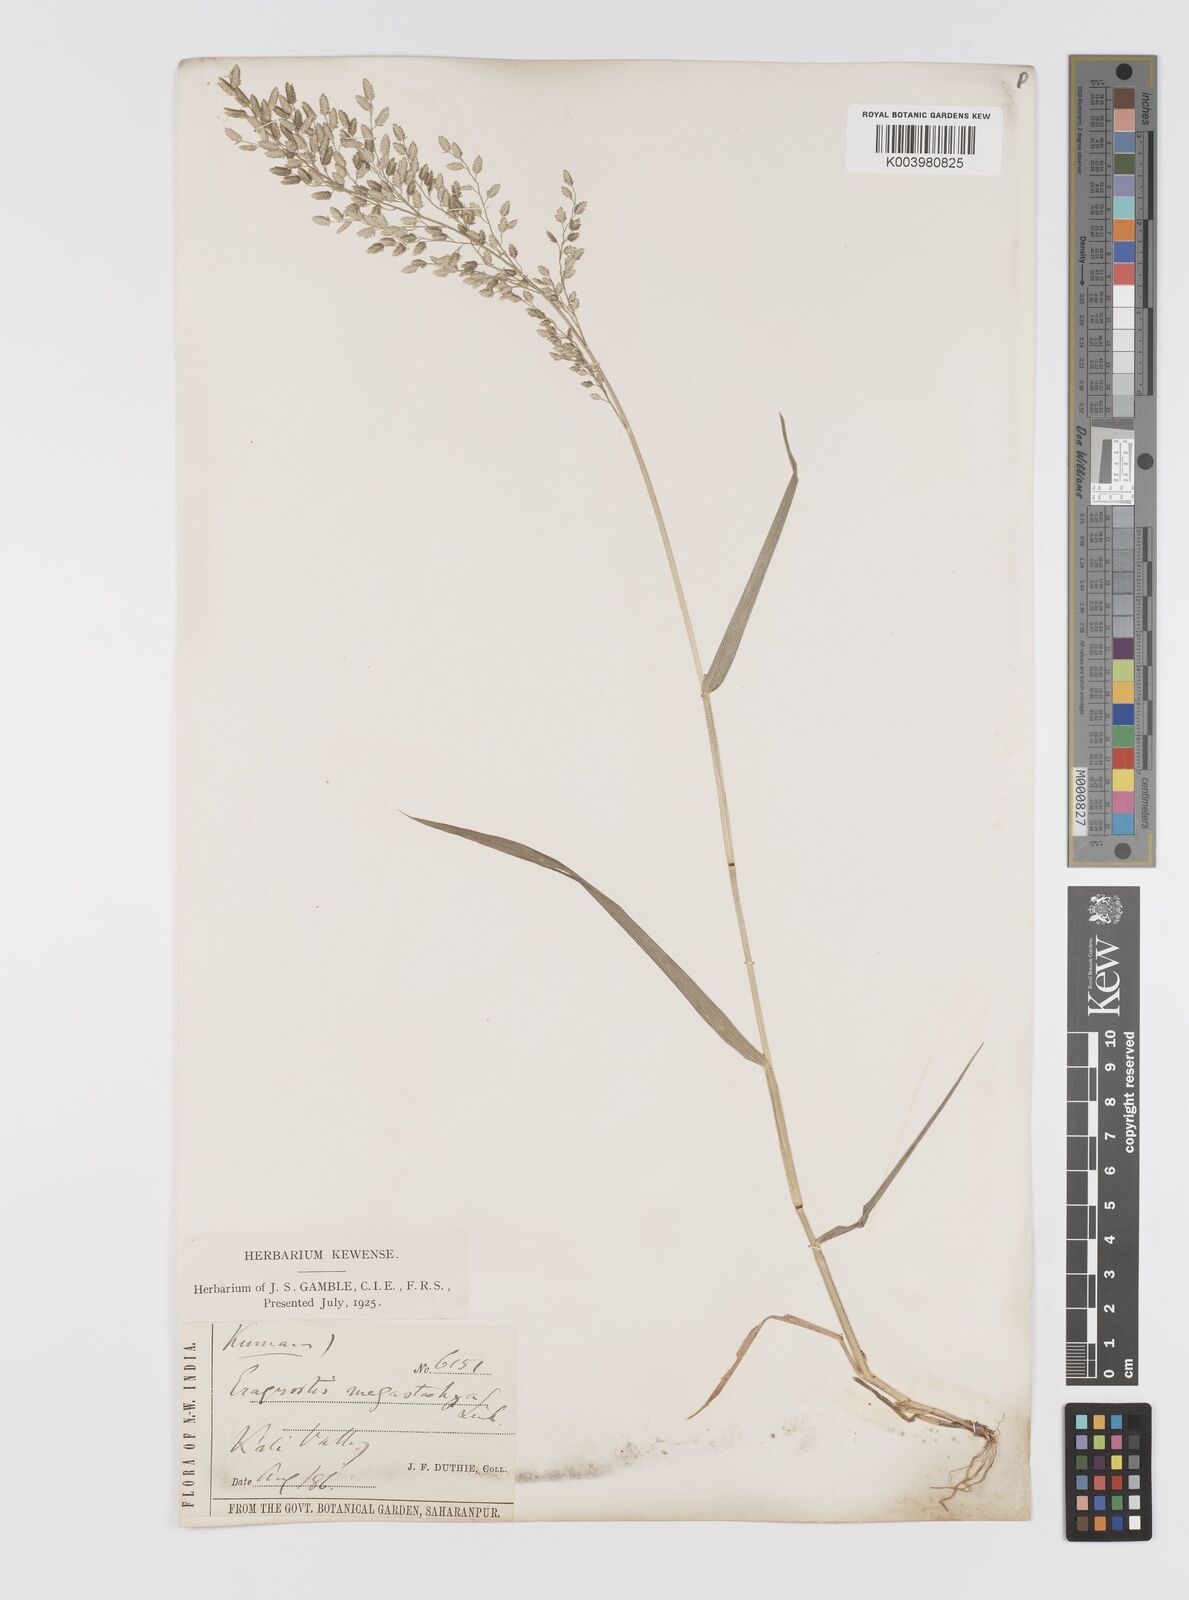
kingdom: Plantae
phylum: Tracheophyta
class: Liliopsida
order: Poales
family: Poaceae
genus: Eragrostis
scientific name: Eragrostis cilianensis
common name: Stinkgrass
